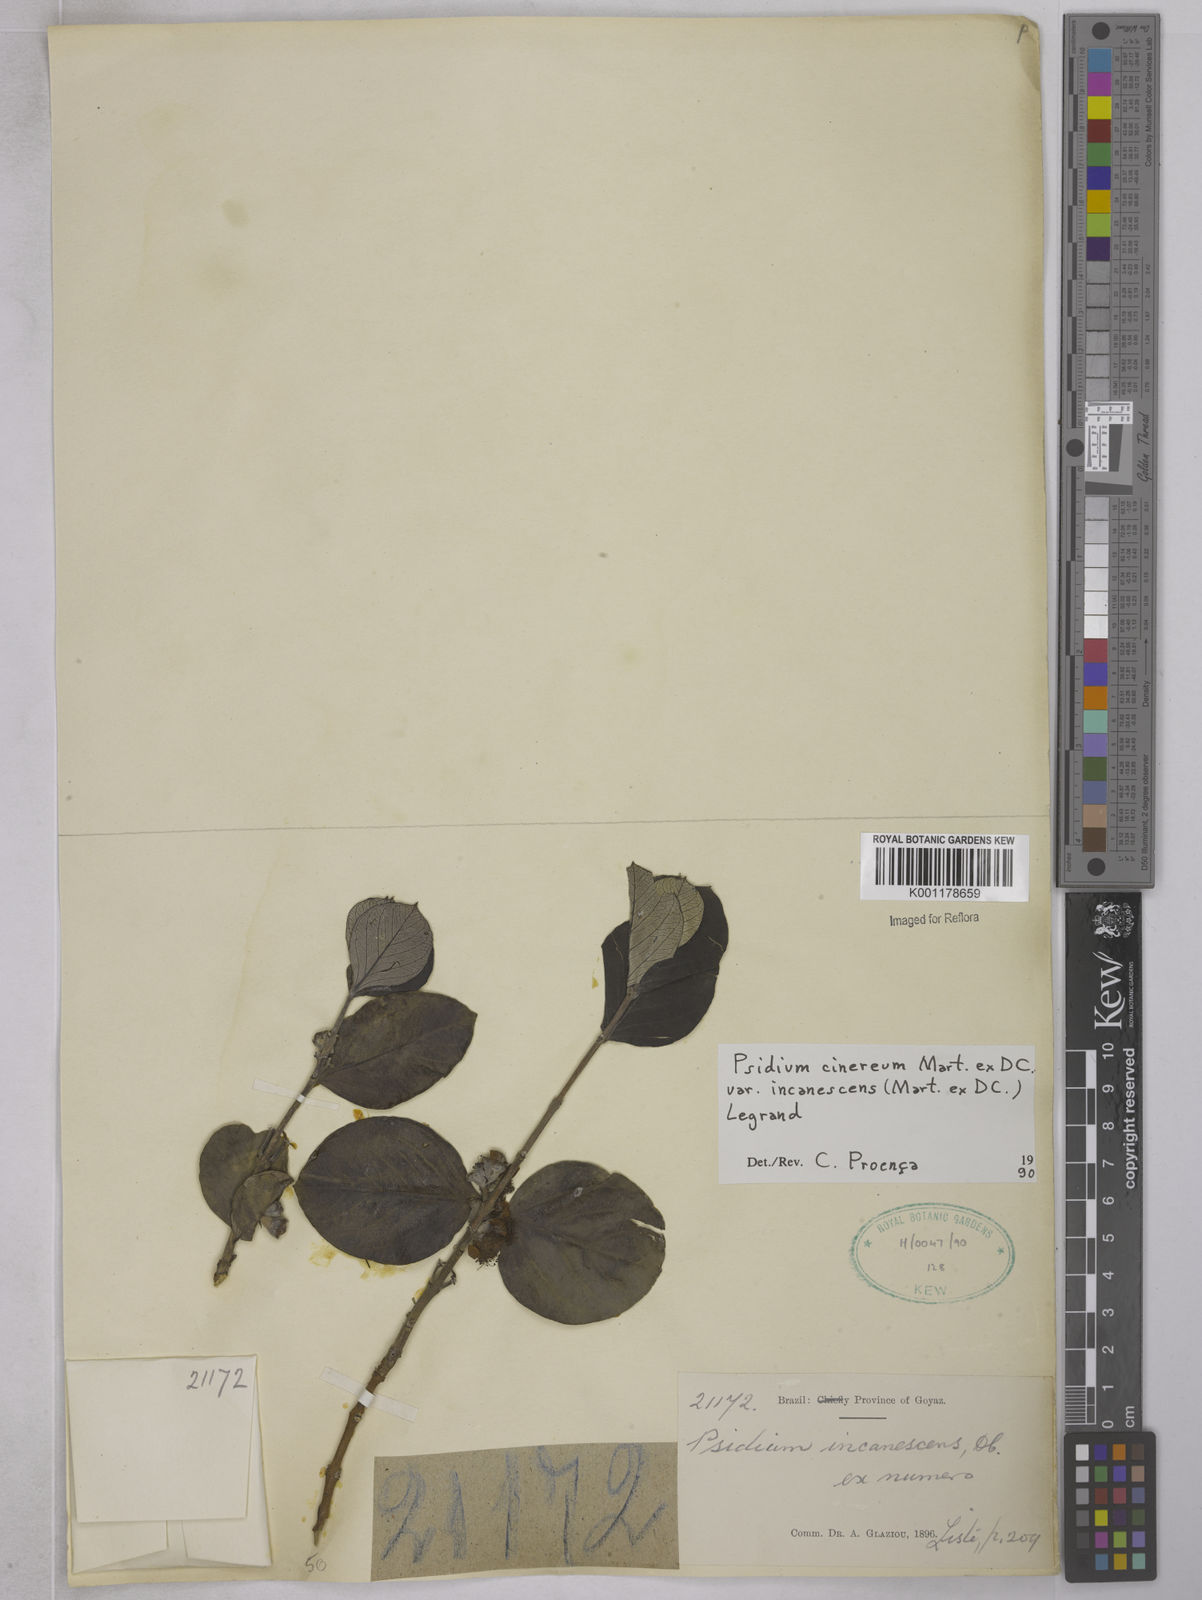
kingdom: Plantae
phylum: Tracheophyta
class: Magnoliopsida
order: Myrtales
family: Myrtaceae
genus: Psidium
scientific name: Psidium grandifolium
